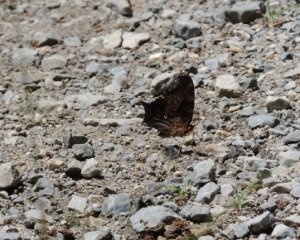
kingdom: Animalia
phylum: Arthropoda
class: Insecta
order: Lepidoptera
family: Nymphalidae
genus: Polygonia
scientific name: Polygonia interrogationis
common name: Question Mark
